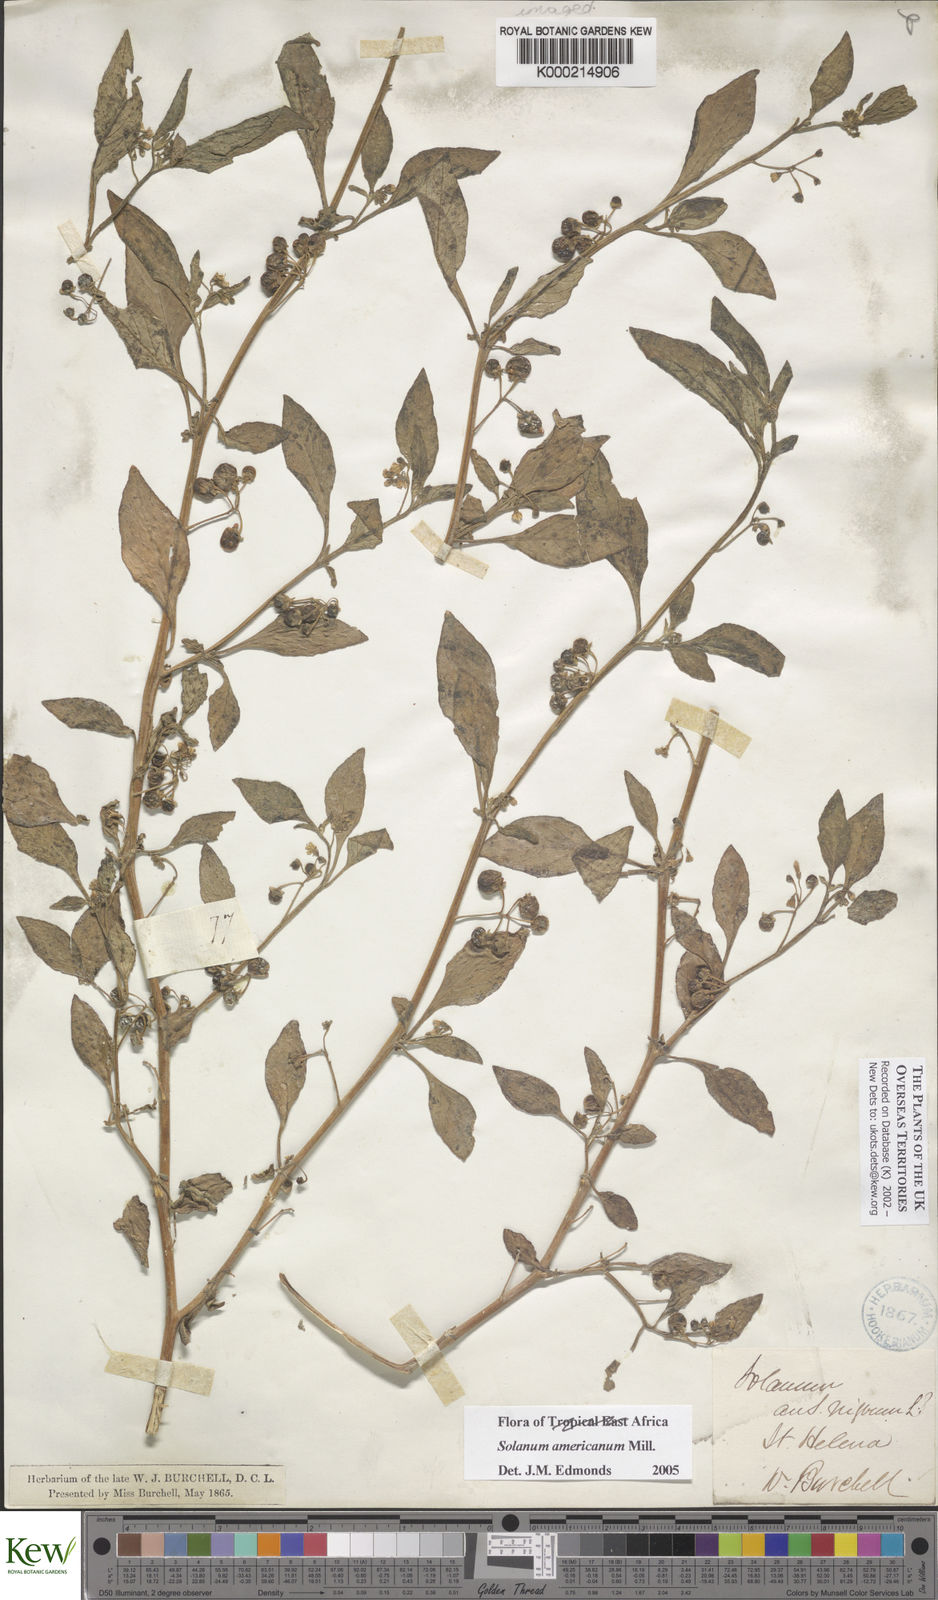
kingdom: Plantae
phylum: Tracheophyta
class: Magnoliopsida
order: Solanales
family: Solanaceae
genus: Solanum
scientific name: Solanum americanum
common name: American black nightshade
